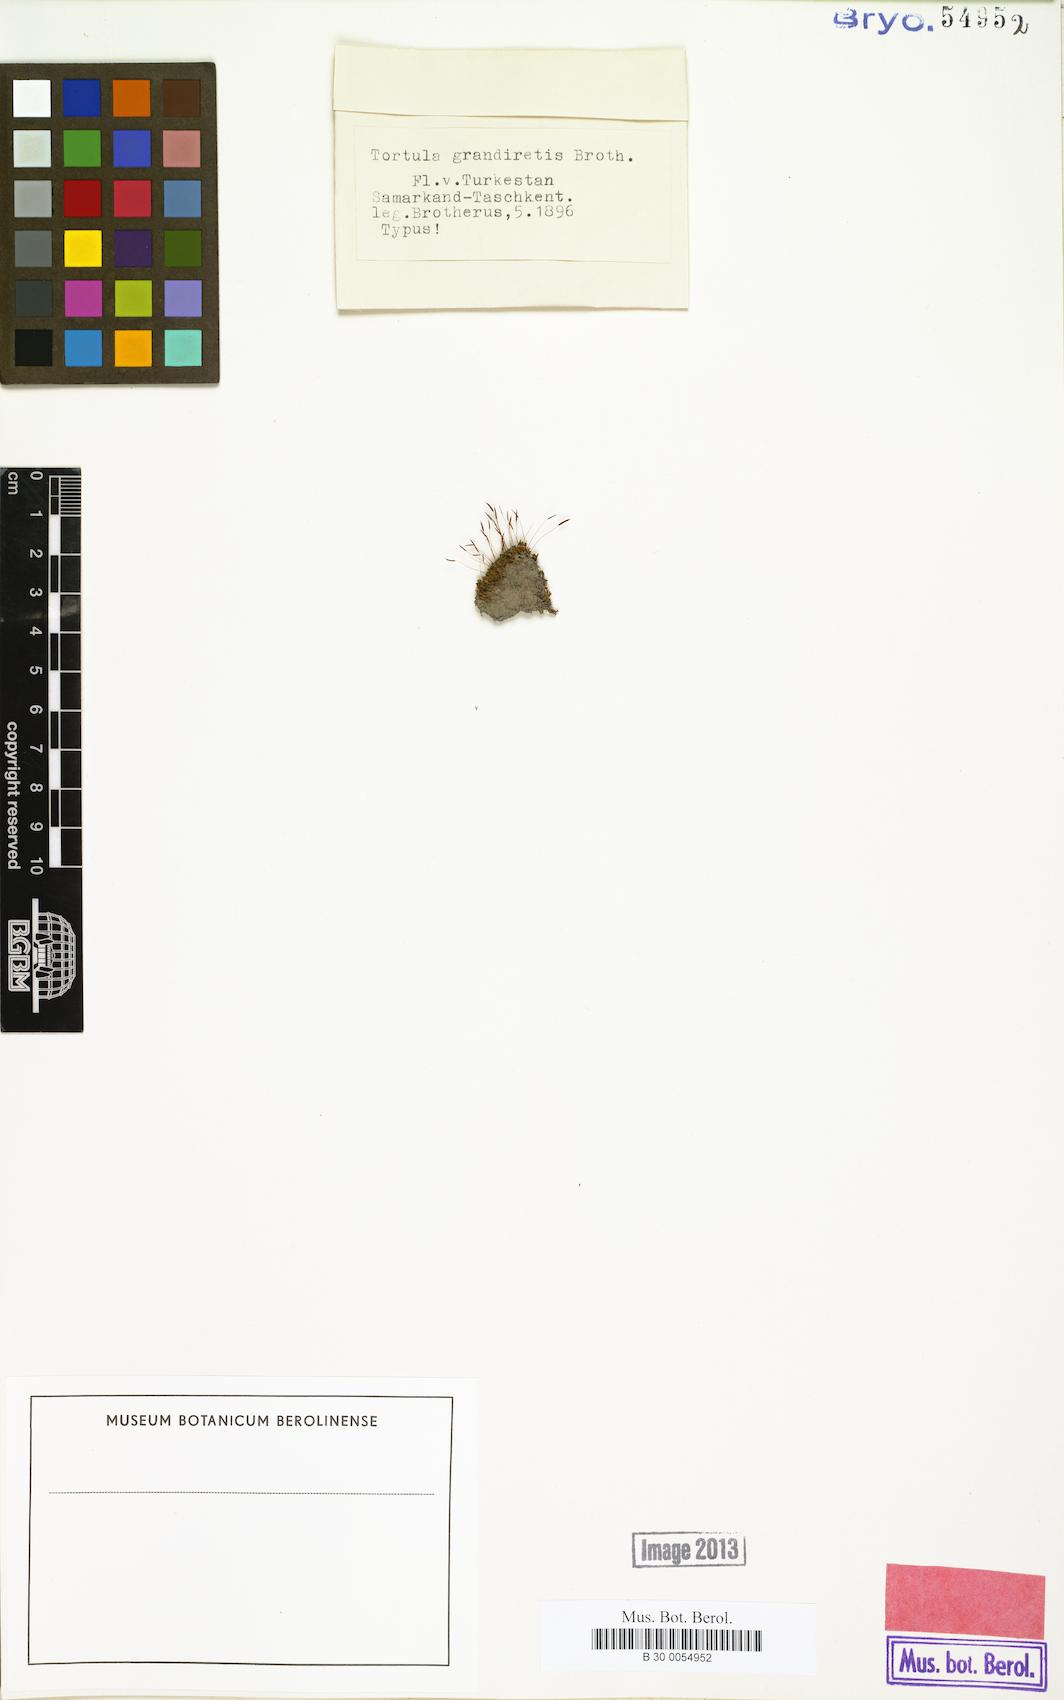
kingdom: Plantae
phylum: Bryophyta
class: Bryopsida
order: Pottiales
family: Pottiaceae
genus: Tortula
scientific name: Tortula grandiretis
